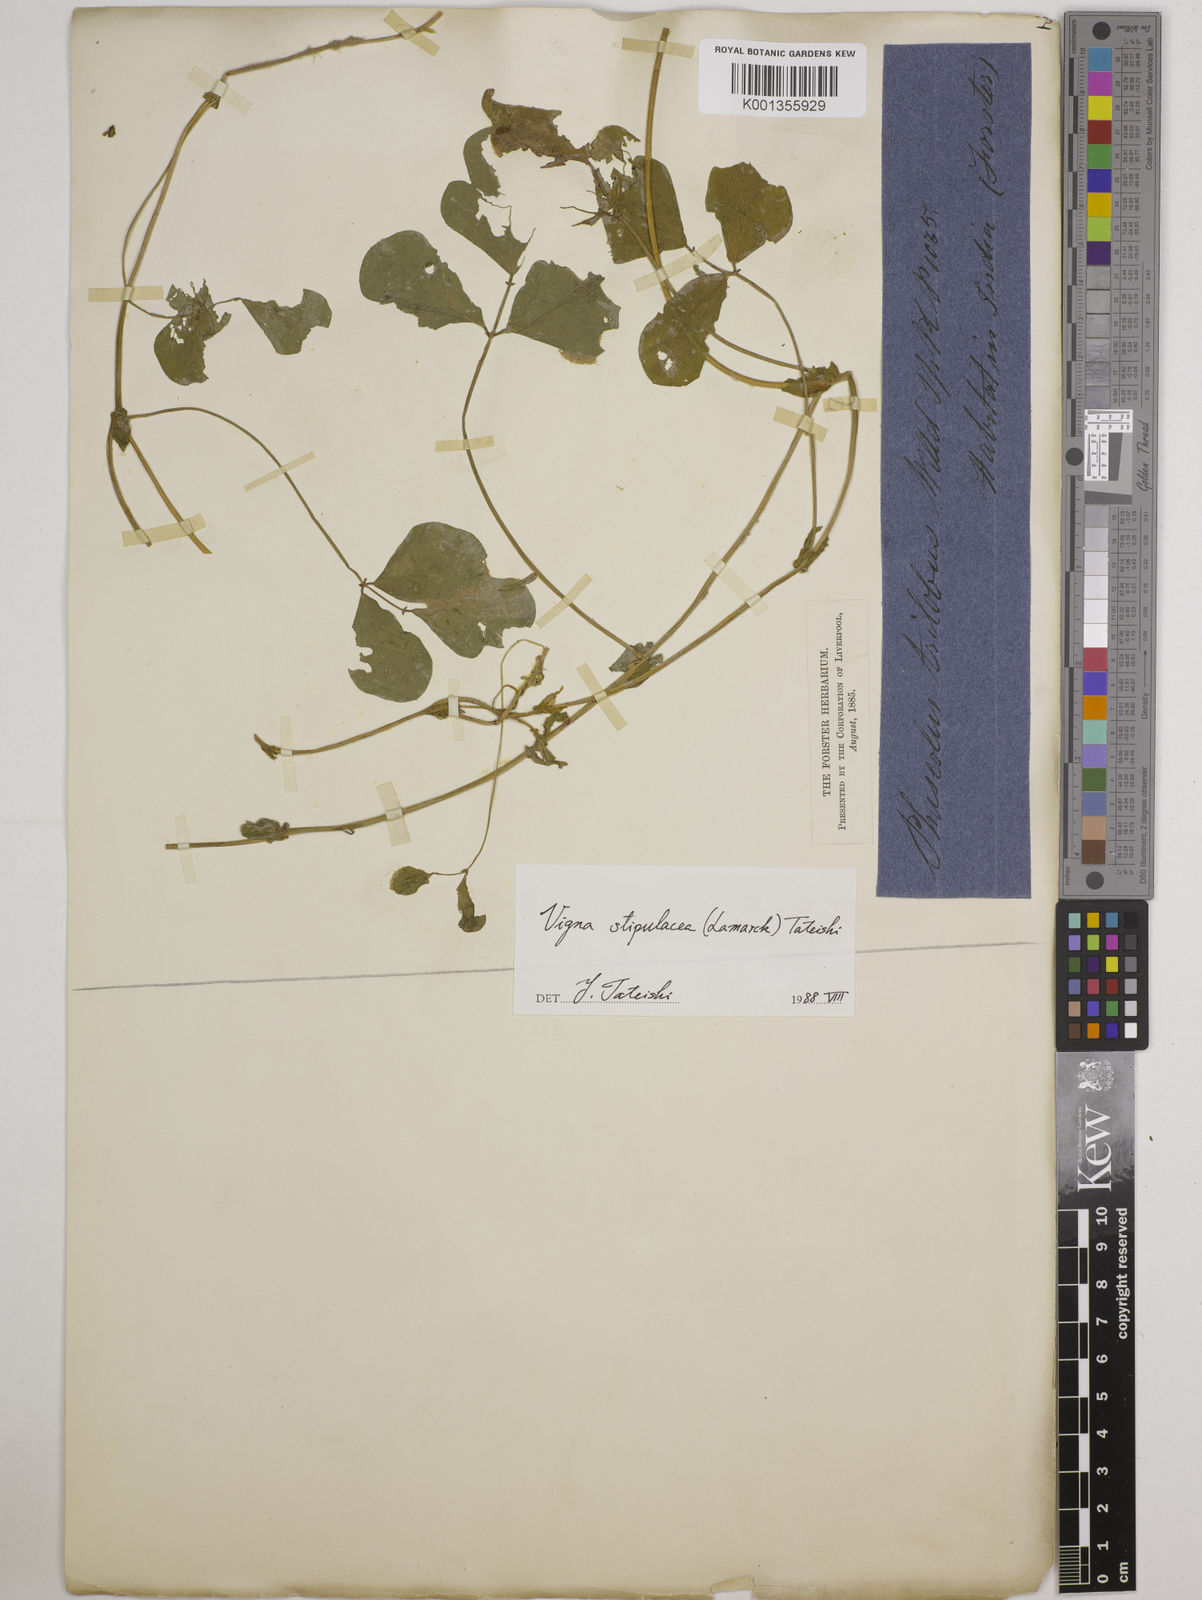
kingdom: Plantae
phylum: Tracheophyta
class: Magnoliopsida
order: Fabales
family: Fabaceae
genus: Pueraria
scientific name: Pueraria montana
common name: Kudzu
